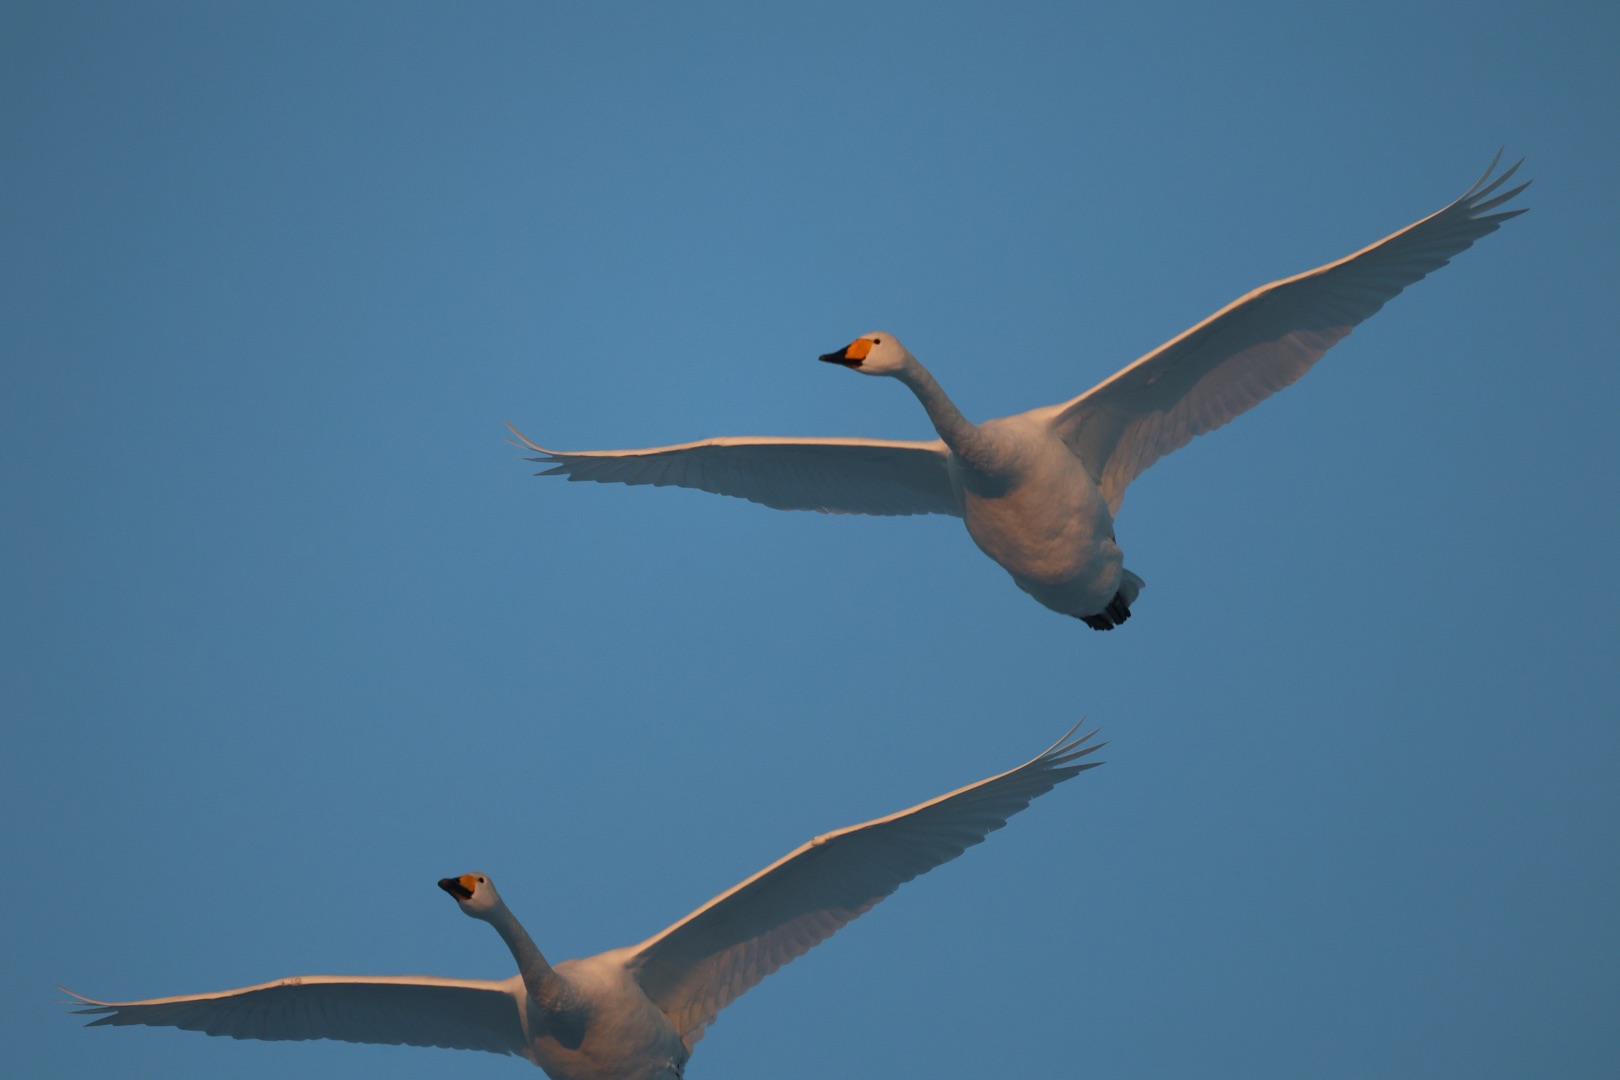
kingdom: Animalia
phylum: Chordata
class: Aves
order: Anseriformes
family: Anatidae
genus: Cygnus
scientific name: Cygnus cygnus
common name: Sangsvane
